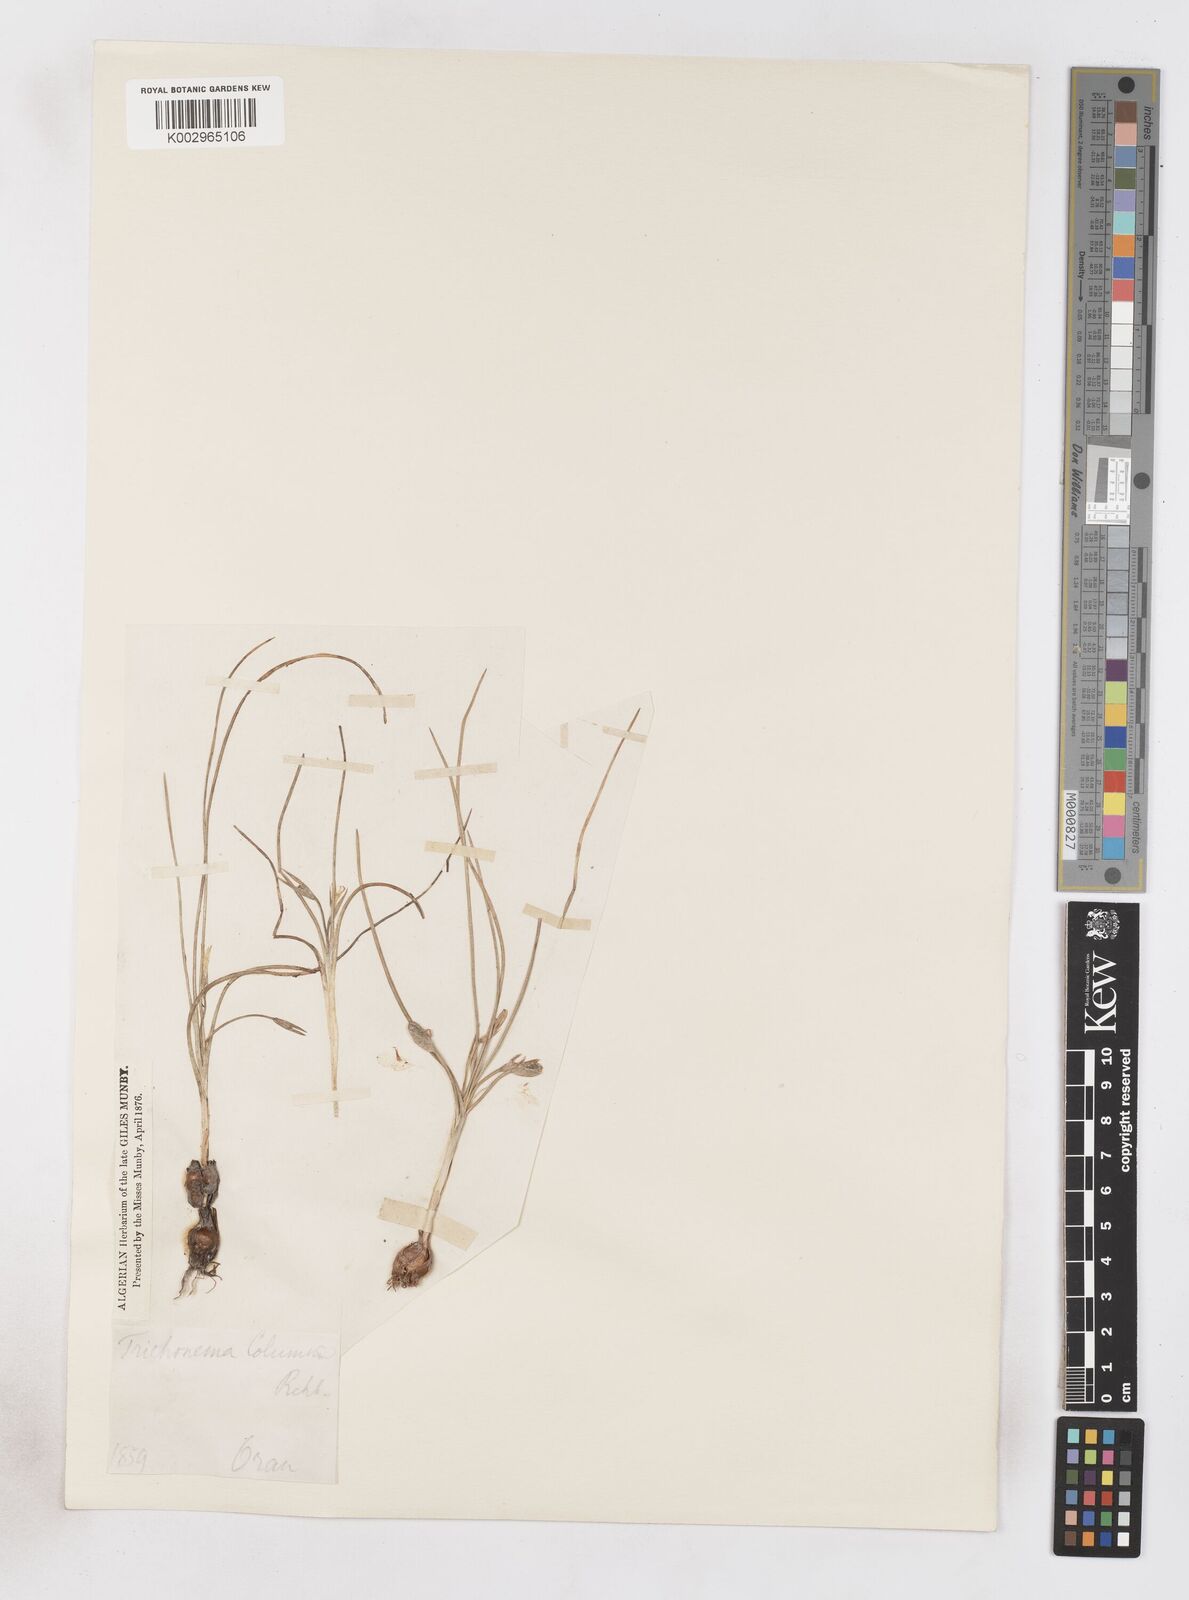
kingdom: Plantae
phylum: Tracheophyta
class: Liliopsida
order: Asparagales
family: Iridaceae
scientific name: Iridaceae
